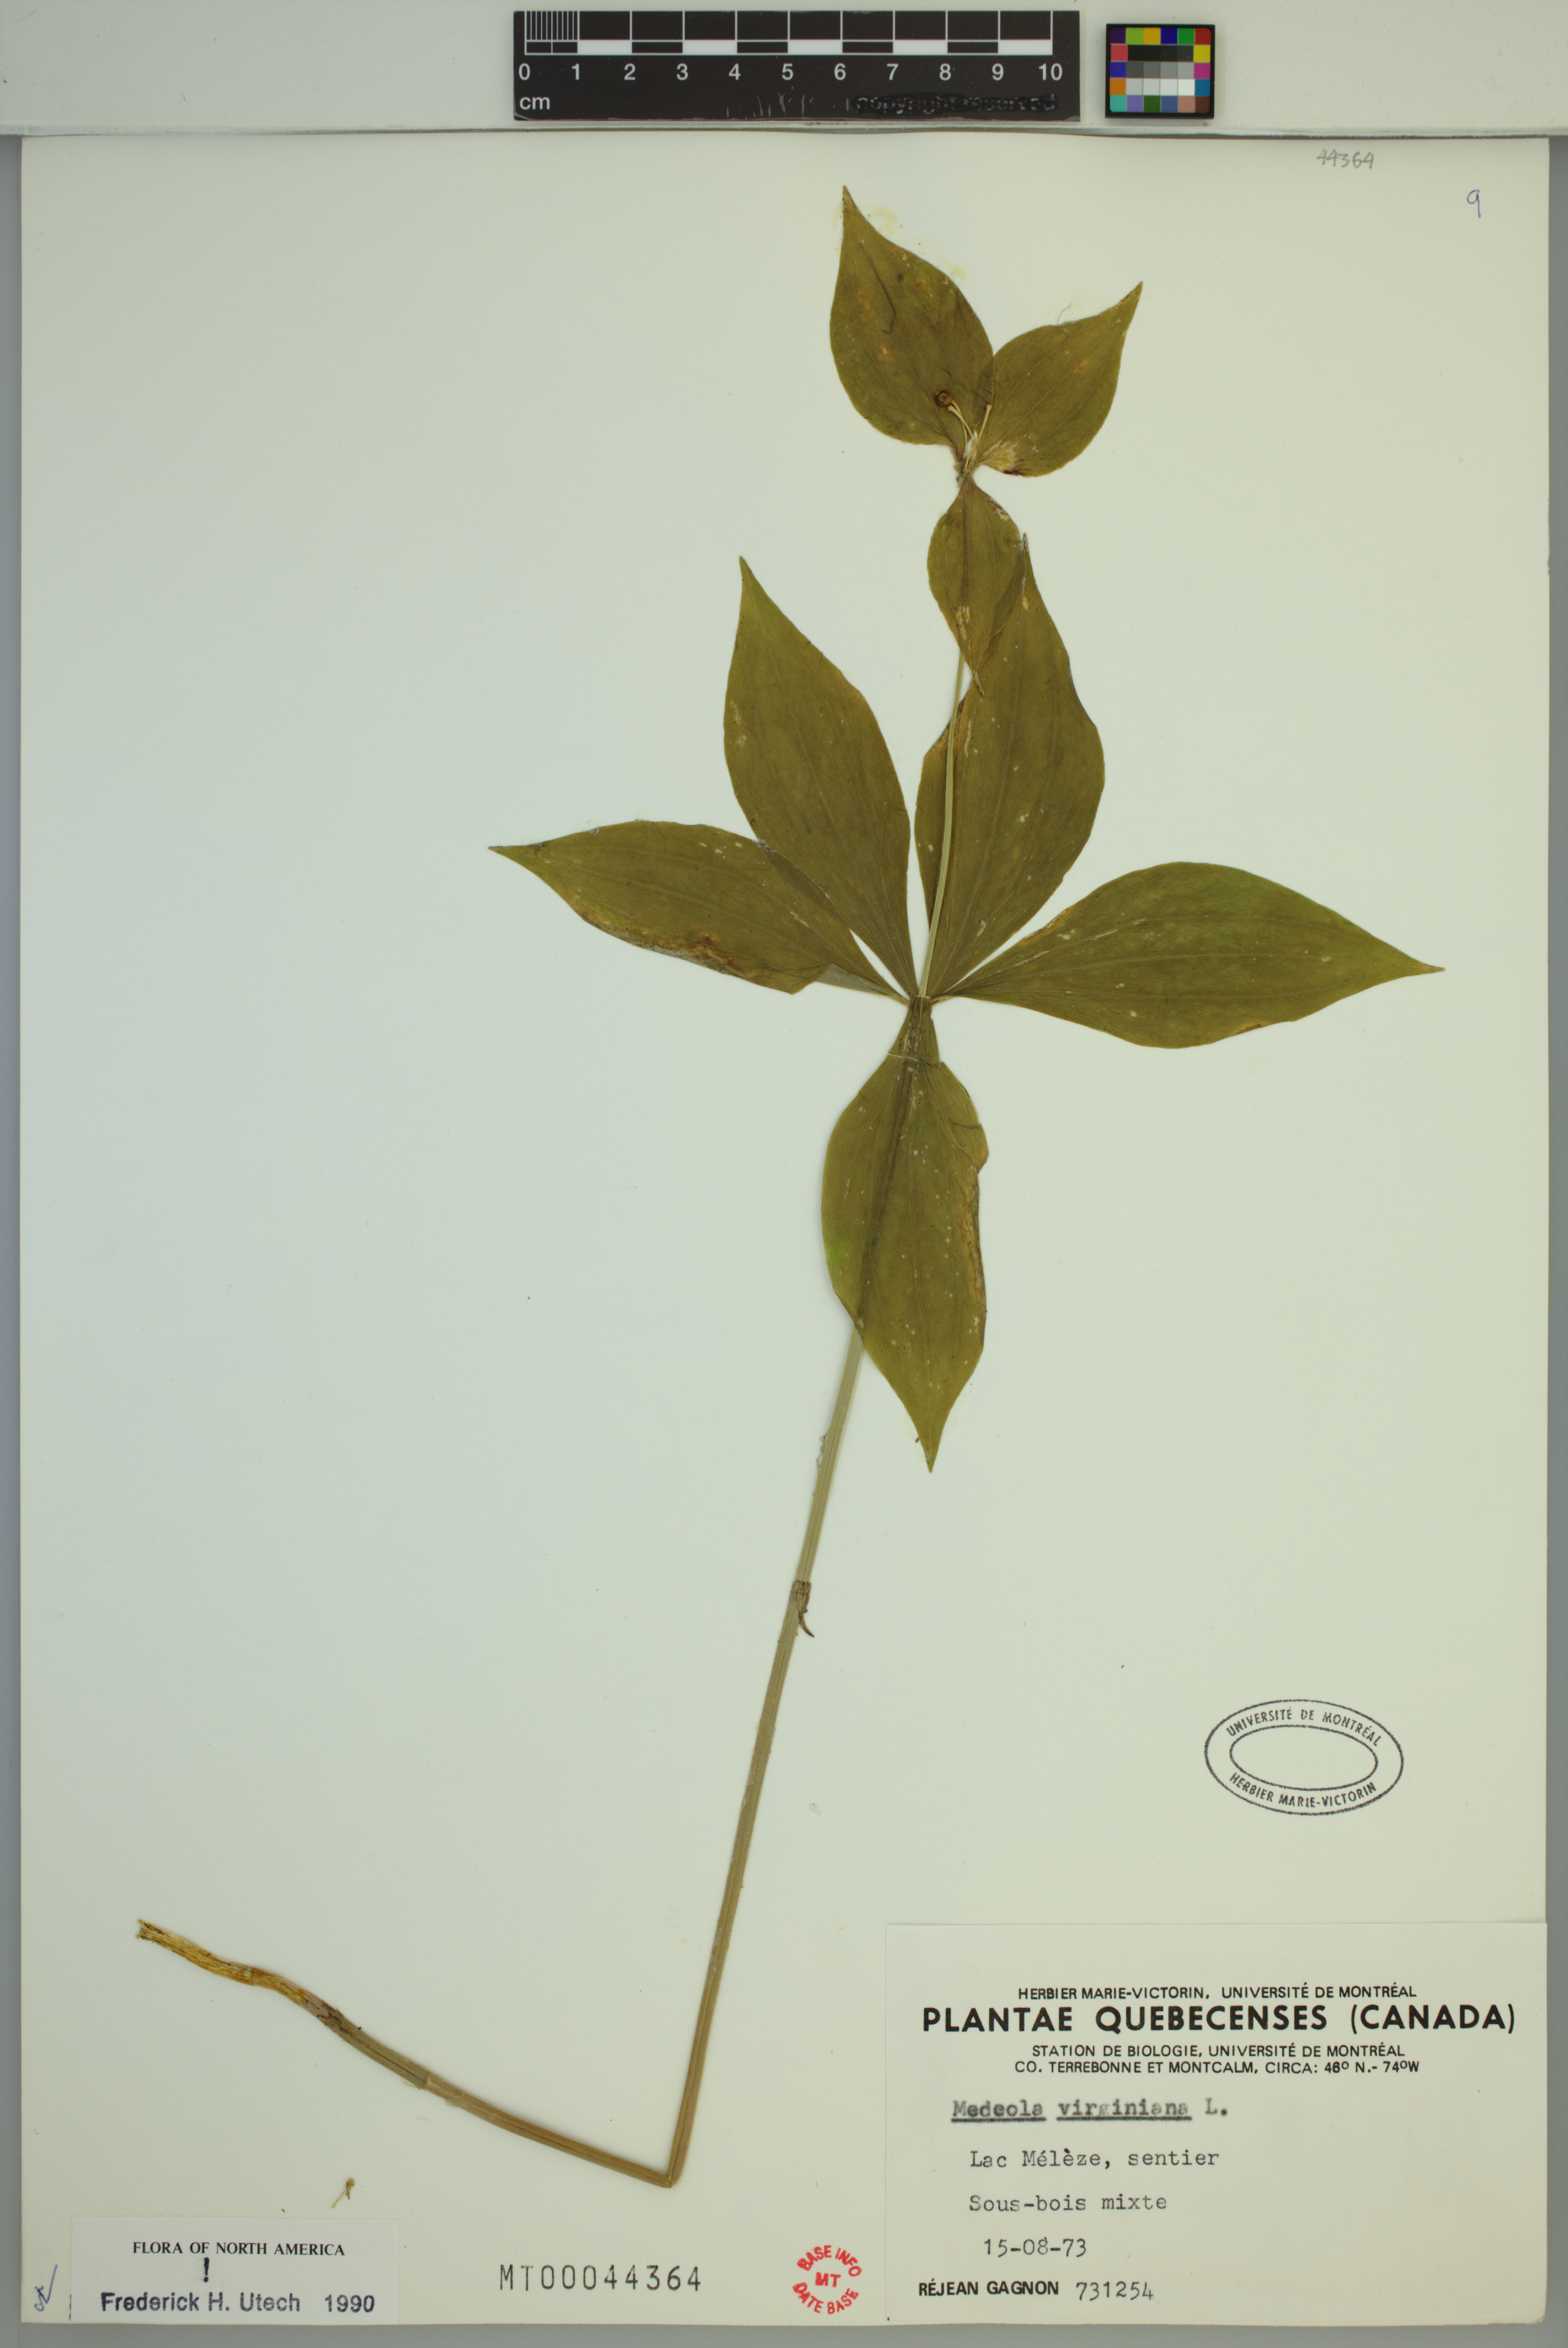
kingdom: Plantae
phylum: Tracheophyta
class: Liliopsida
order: Liliales
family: Liliaceae
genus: Medeola
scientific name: Medeola virginiana
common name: Indian cucumber-root
